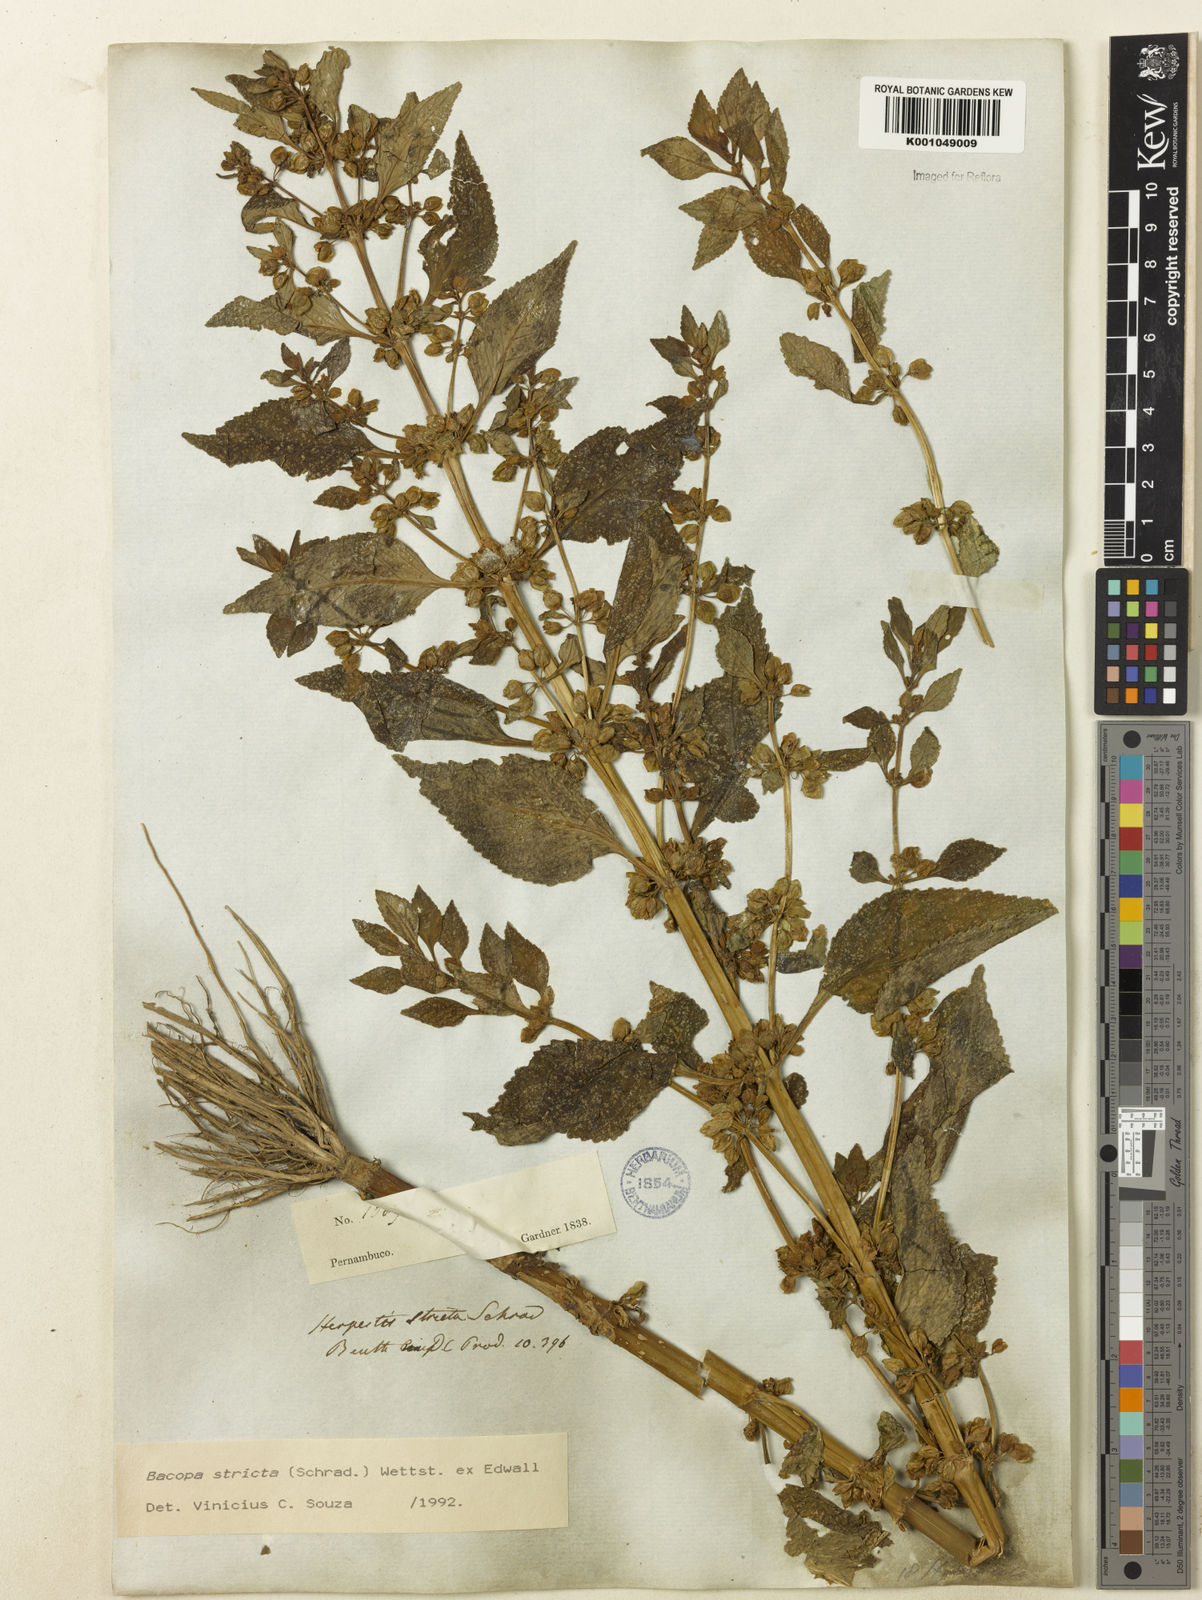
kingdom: Plantae
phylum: Tracheophyta
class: Magnoliopsida
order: Lamiales
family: Plantaginaceae
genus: Bacopa
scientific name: Bacopa stricta
